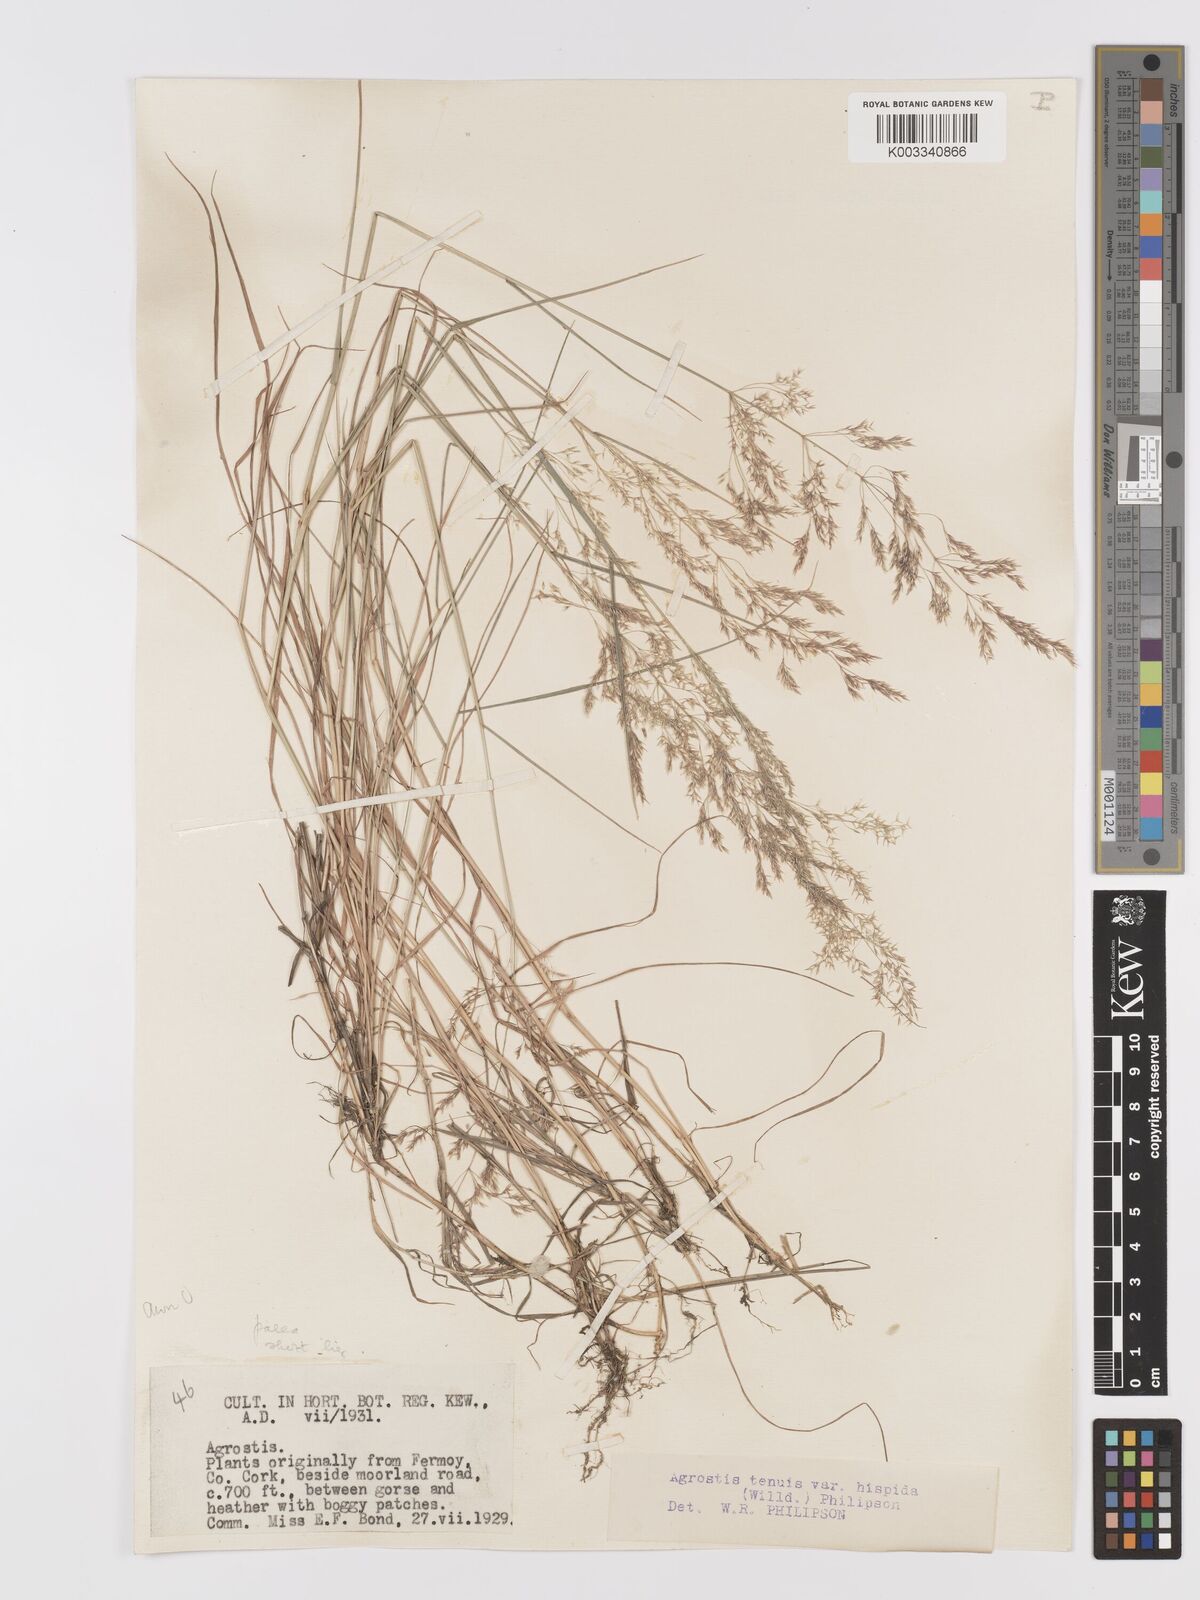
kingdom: Plantae
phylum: Tracheophyta
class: Liliopsida
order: Poales
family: Poaceae
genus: Agrostis
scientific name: Agrostis capillaris
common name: Colonial bentgrass
